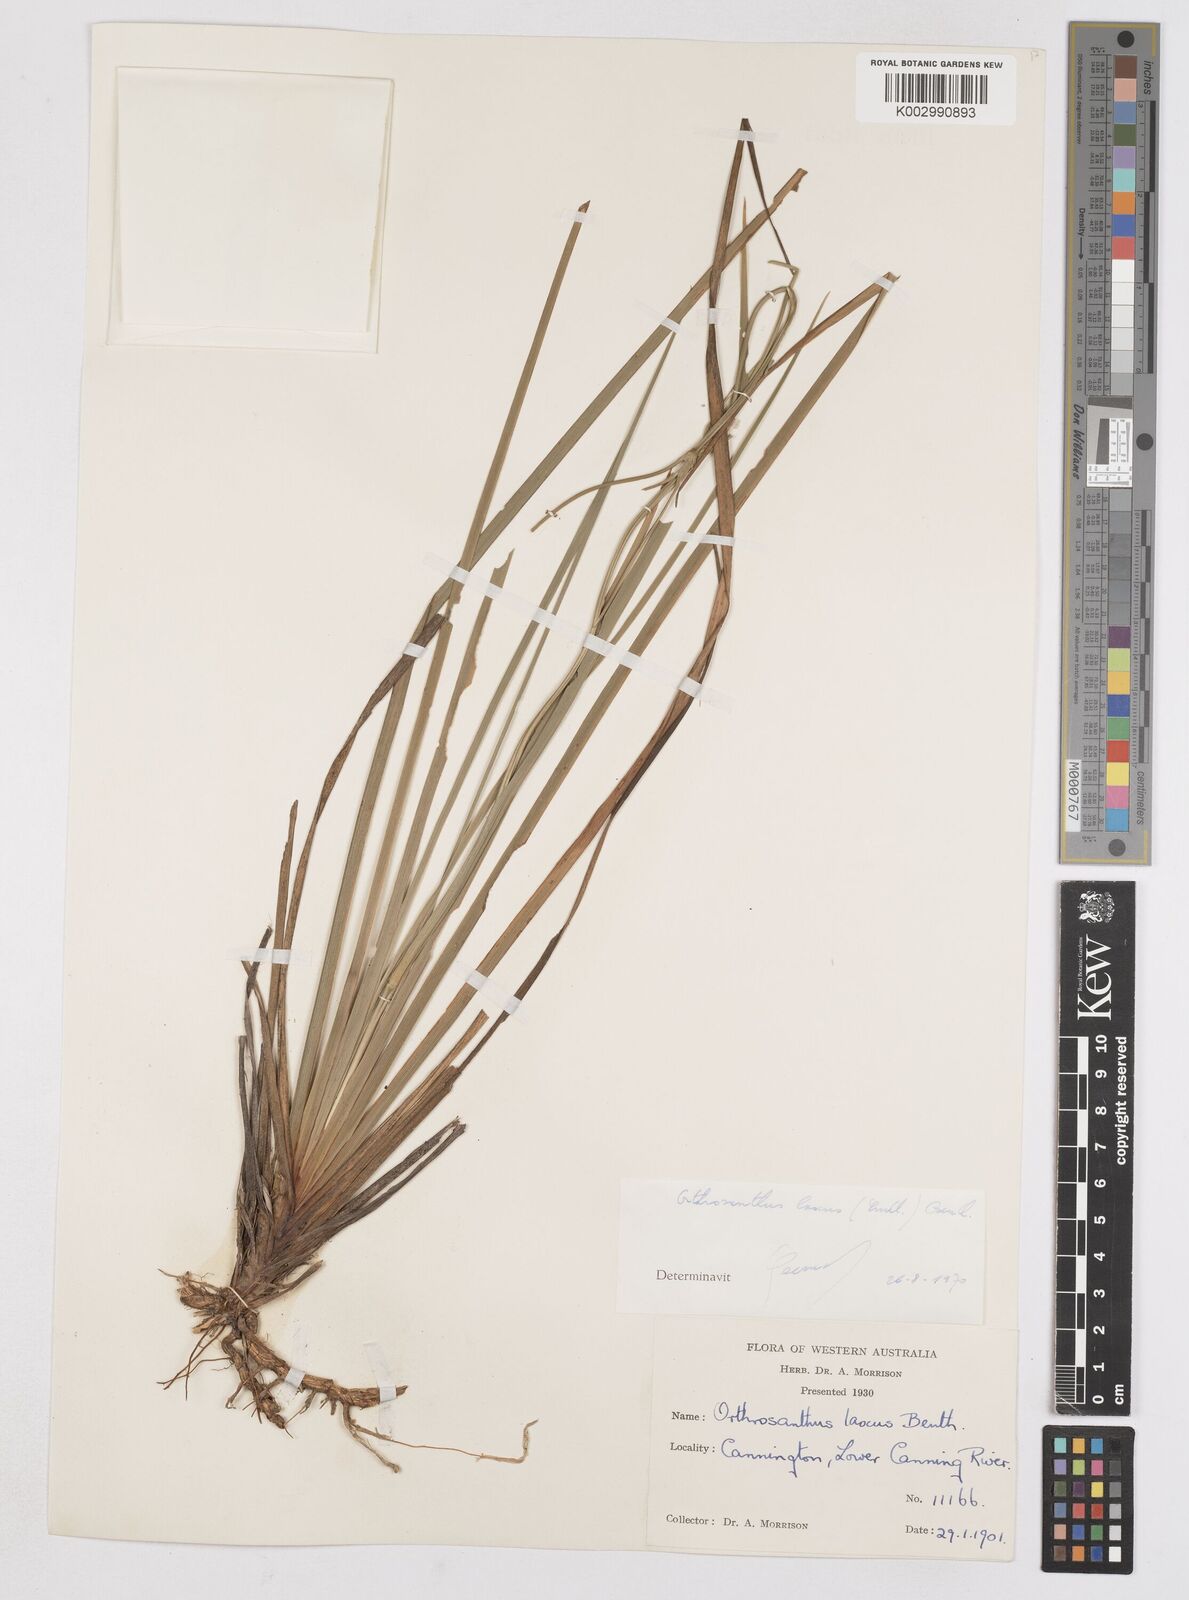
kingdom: Plantae
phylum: Tracheophyta
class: Liliopsida
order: Asparagales
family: Iridaceae
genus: Orthrosanthus
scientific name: Orthrosanthus laxus
